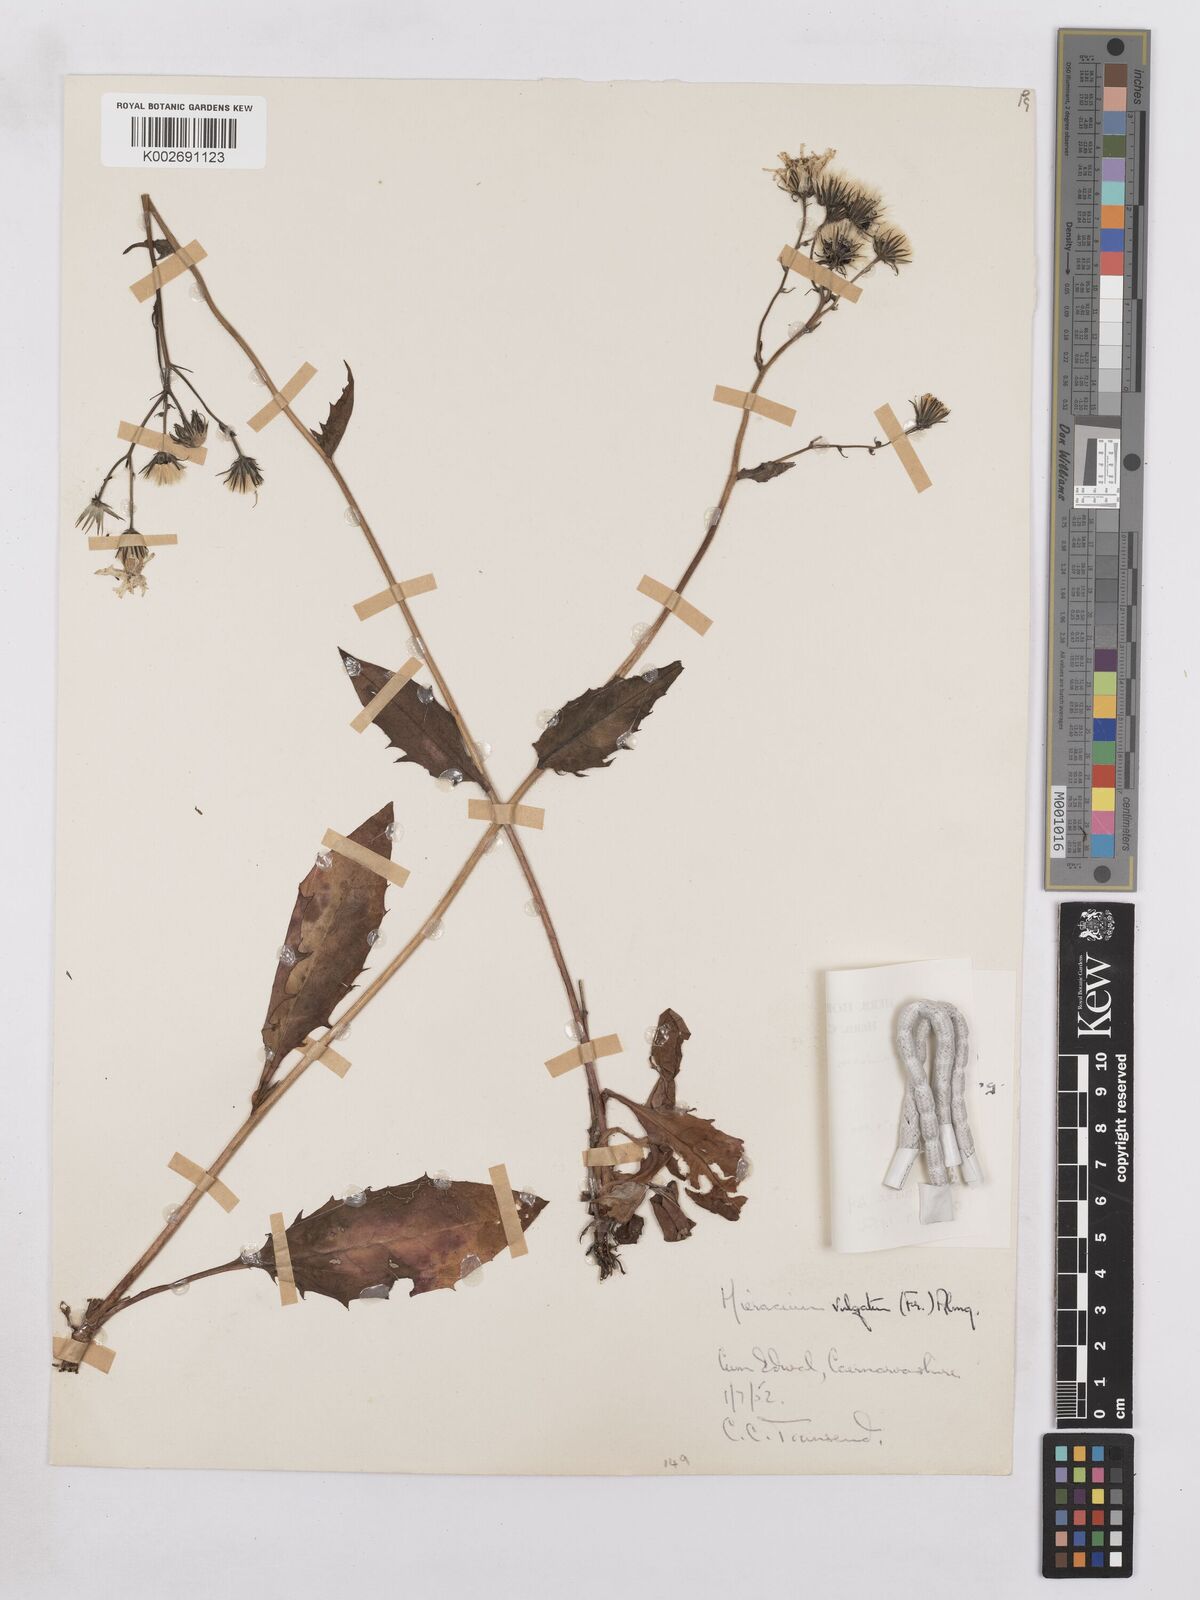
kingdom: Plantae
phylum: Tracheophyta
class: Magnoliopsida
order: Asterales
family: Asteraceae
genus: Hieracium
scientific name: Hieracium lachenalii
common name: Common hawkweed
